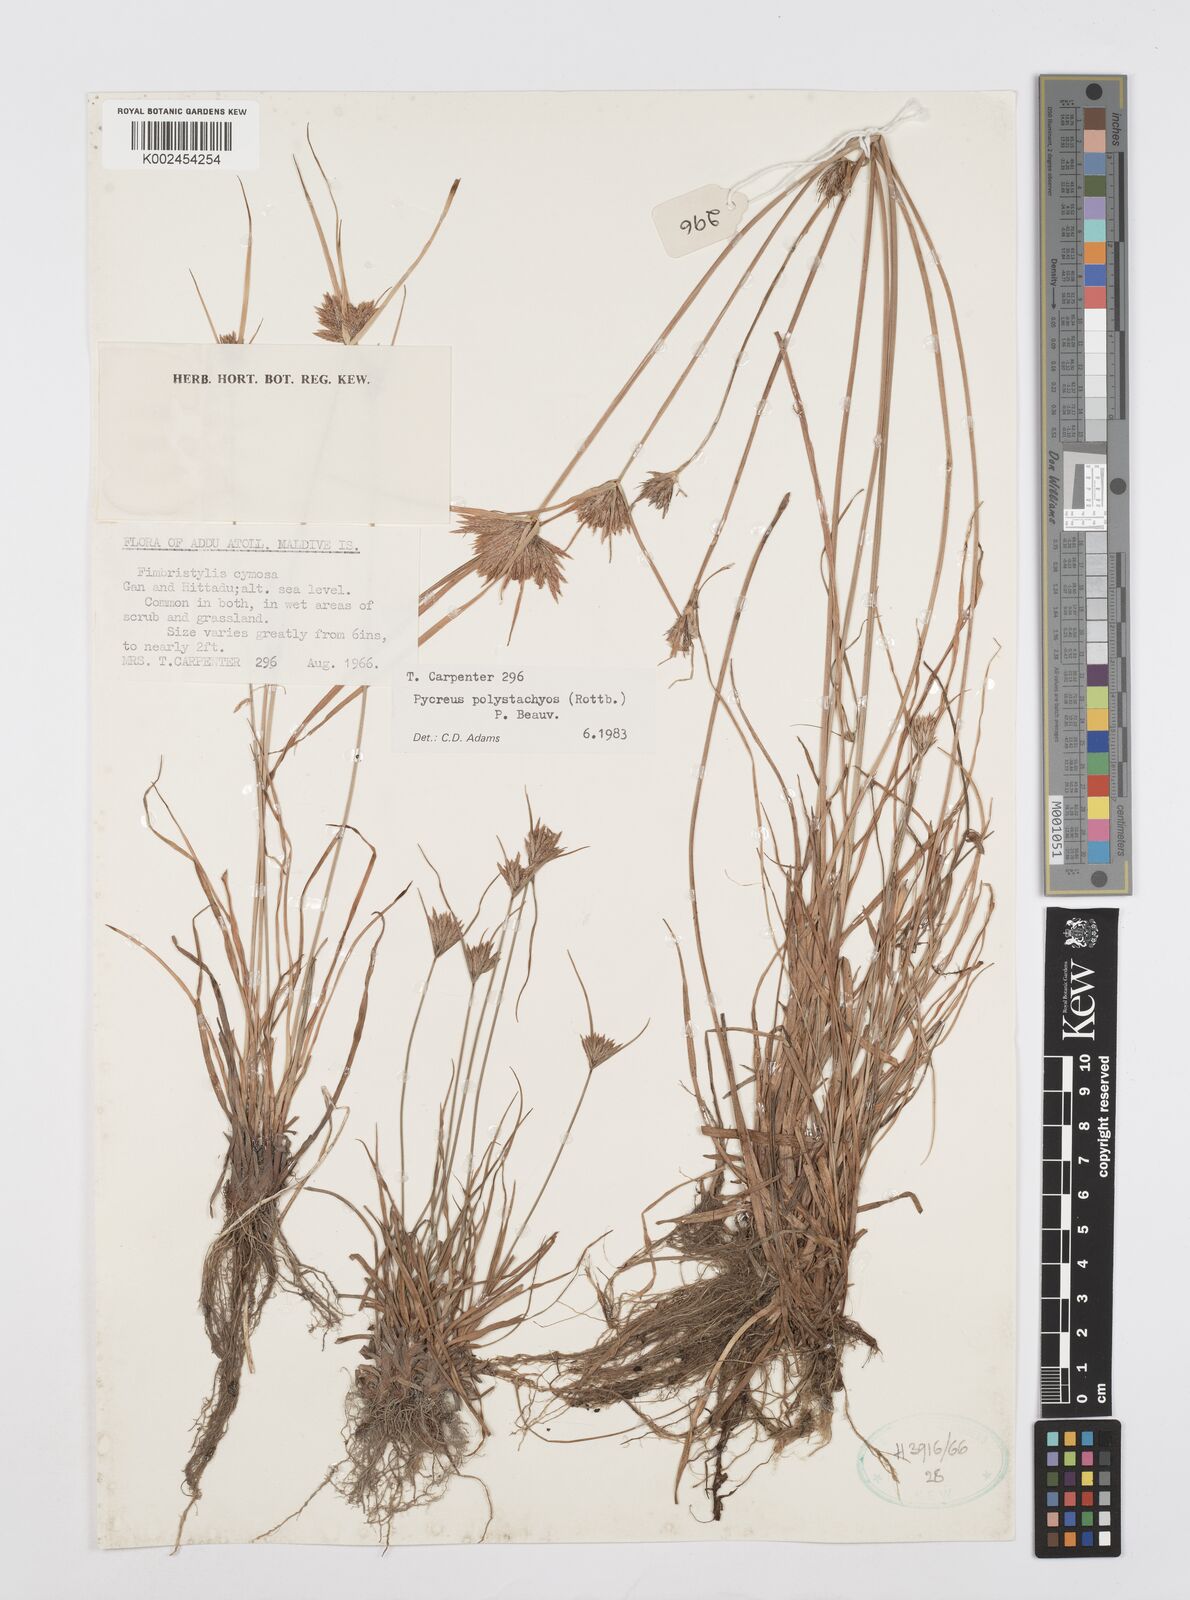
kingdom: Plantae
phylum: Tracheophyta
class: Liliopsida
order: Poales
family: Cyperaceae
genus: Cyperus
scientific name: Cyperus polystachyos
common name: Bunchy flat sedge
